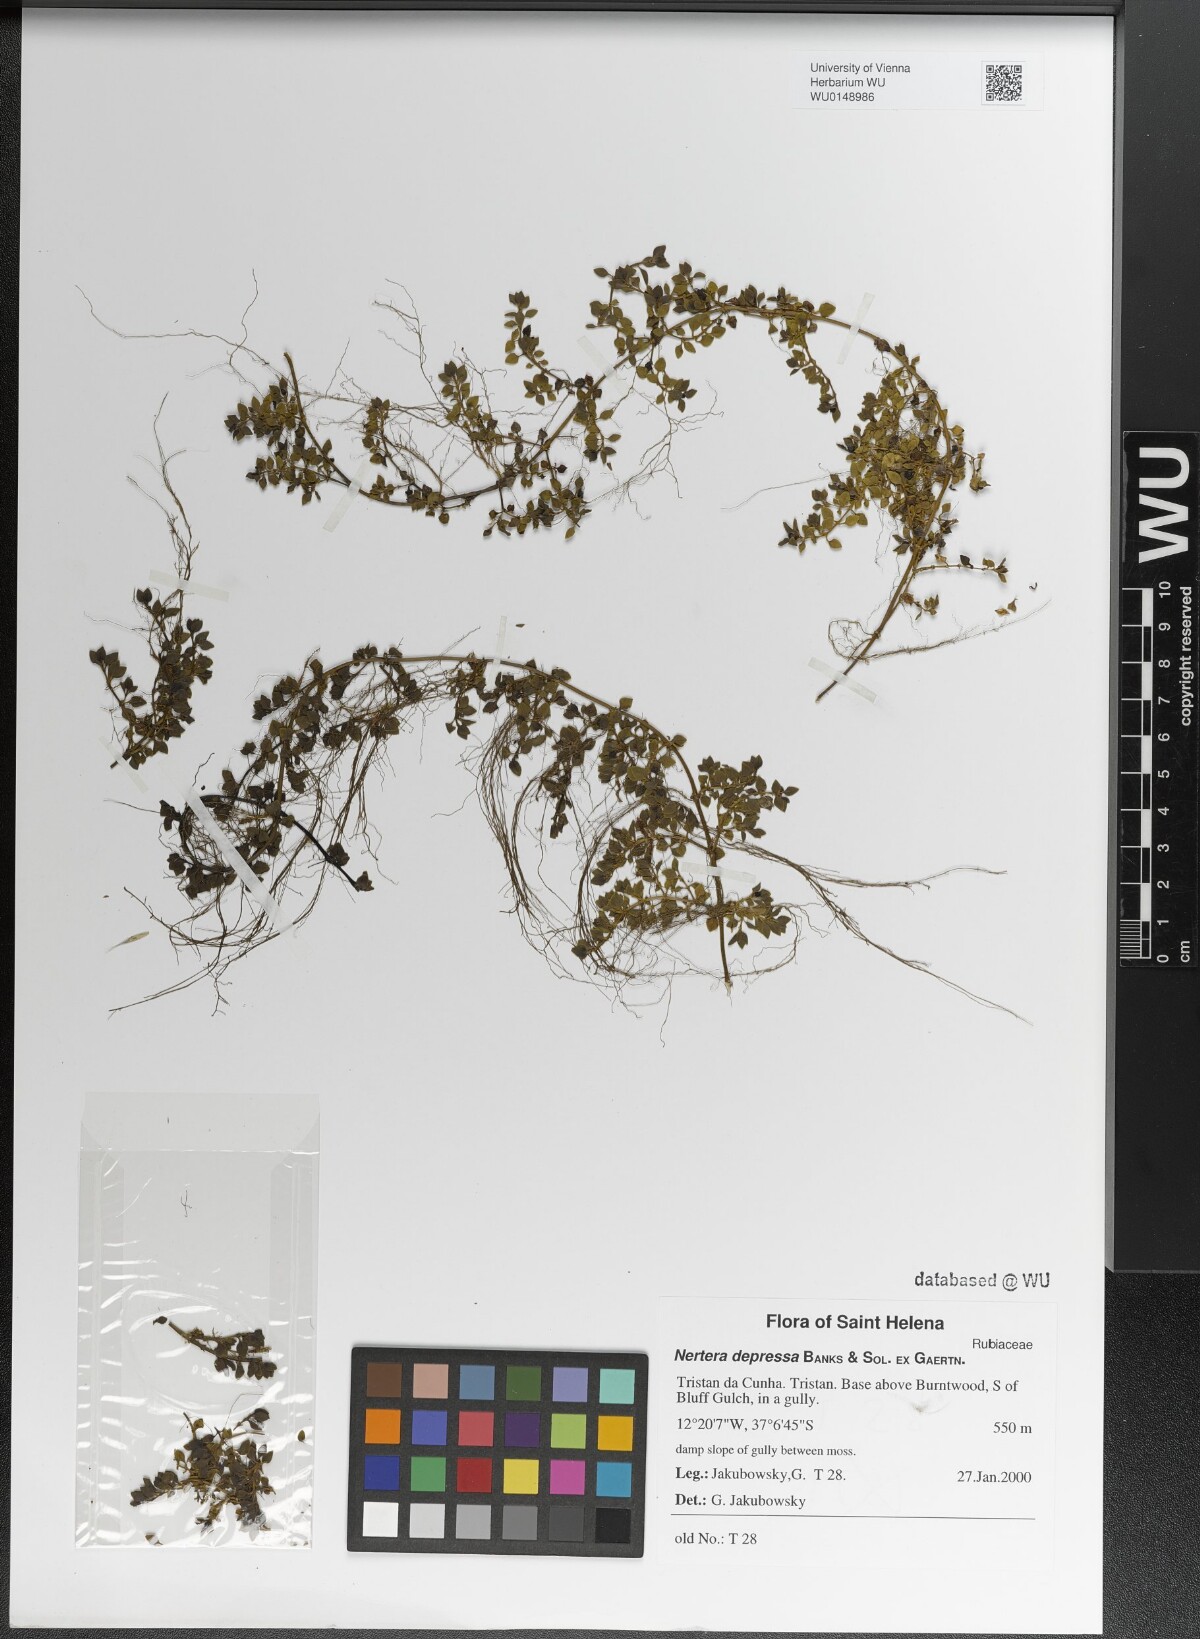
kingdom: Plantae
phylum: Tracheophyta
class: Magnoliopsida
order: Gentianales
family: Rubiaceae
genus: Nertera
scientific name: Nertera granadensis
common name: Beadplant
